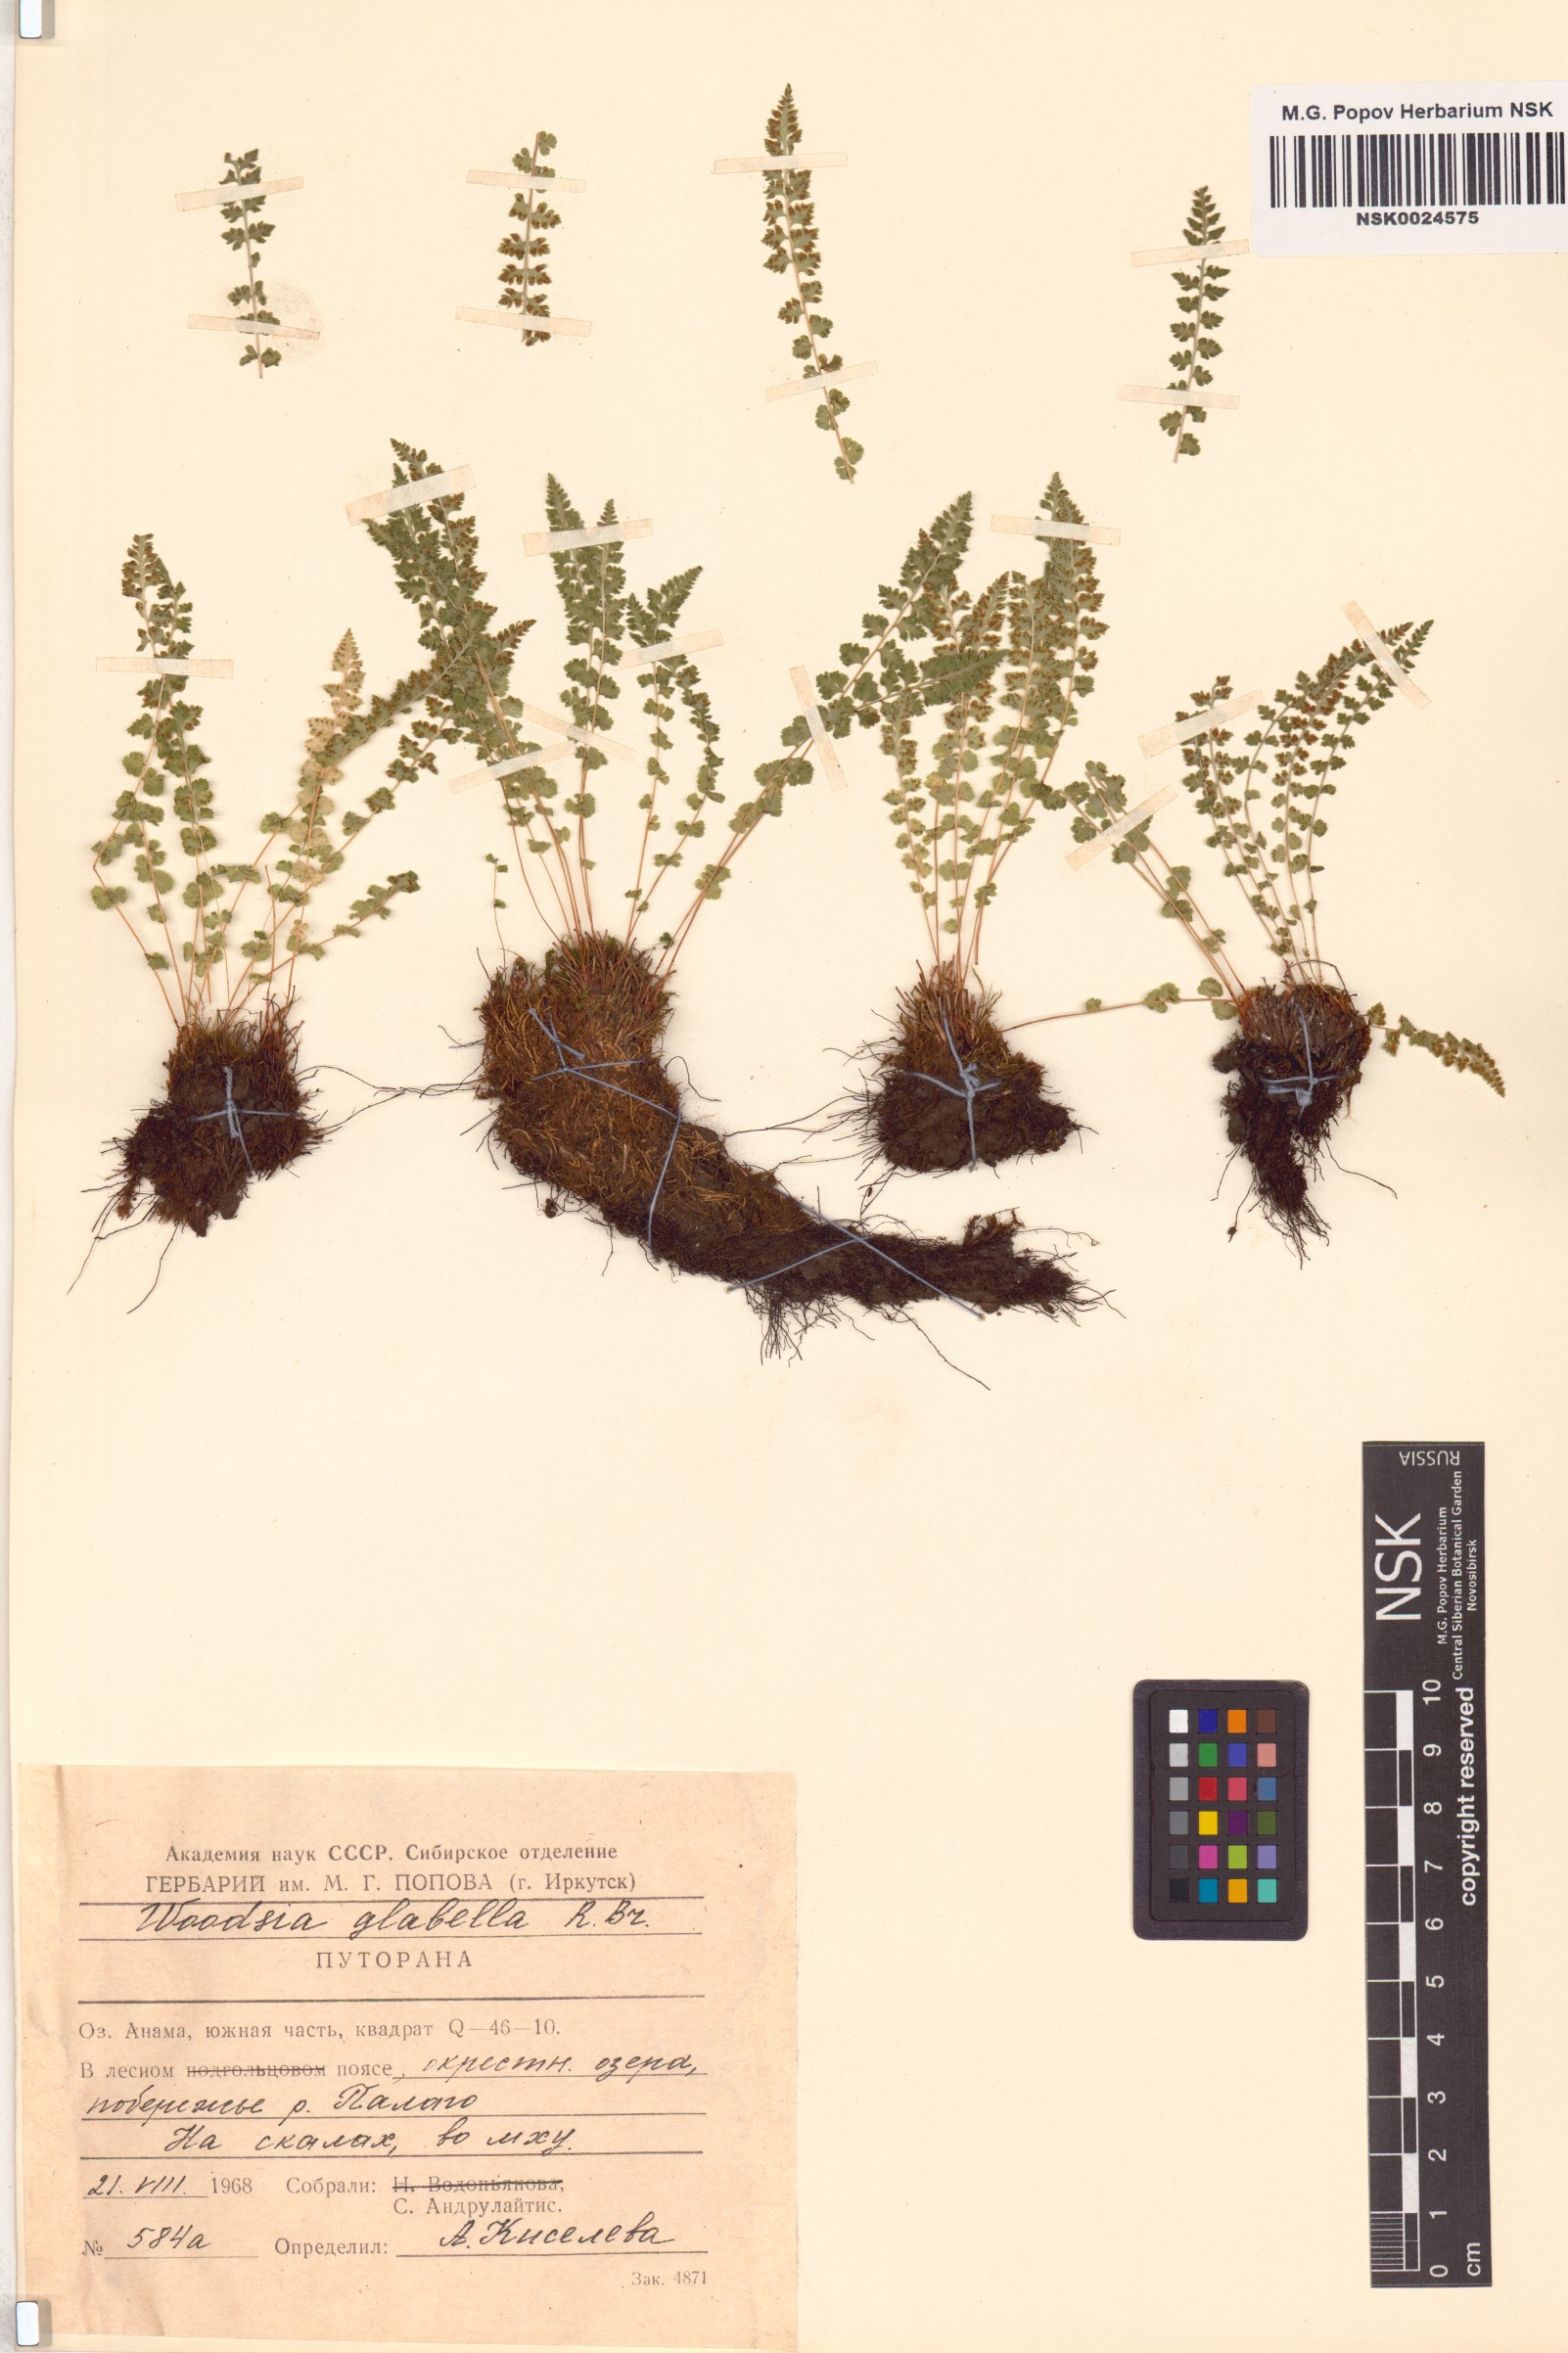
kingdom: Plantae
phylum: Tracheophyta
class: Polypodiopsida
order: Polypodiales
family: Woodsiaceae
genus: Woodsia
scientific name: Woodsia glabella
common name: Smooth woodsia
